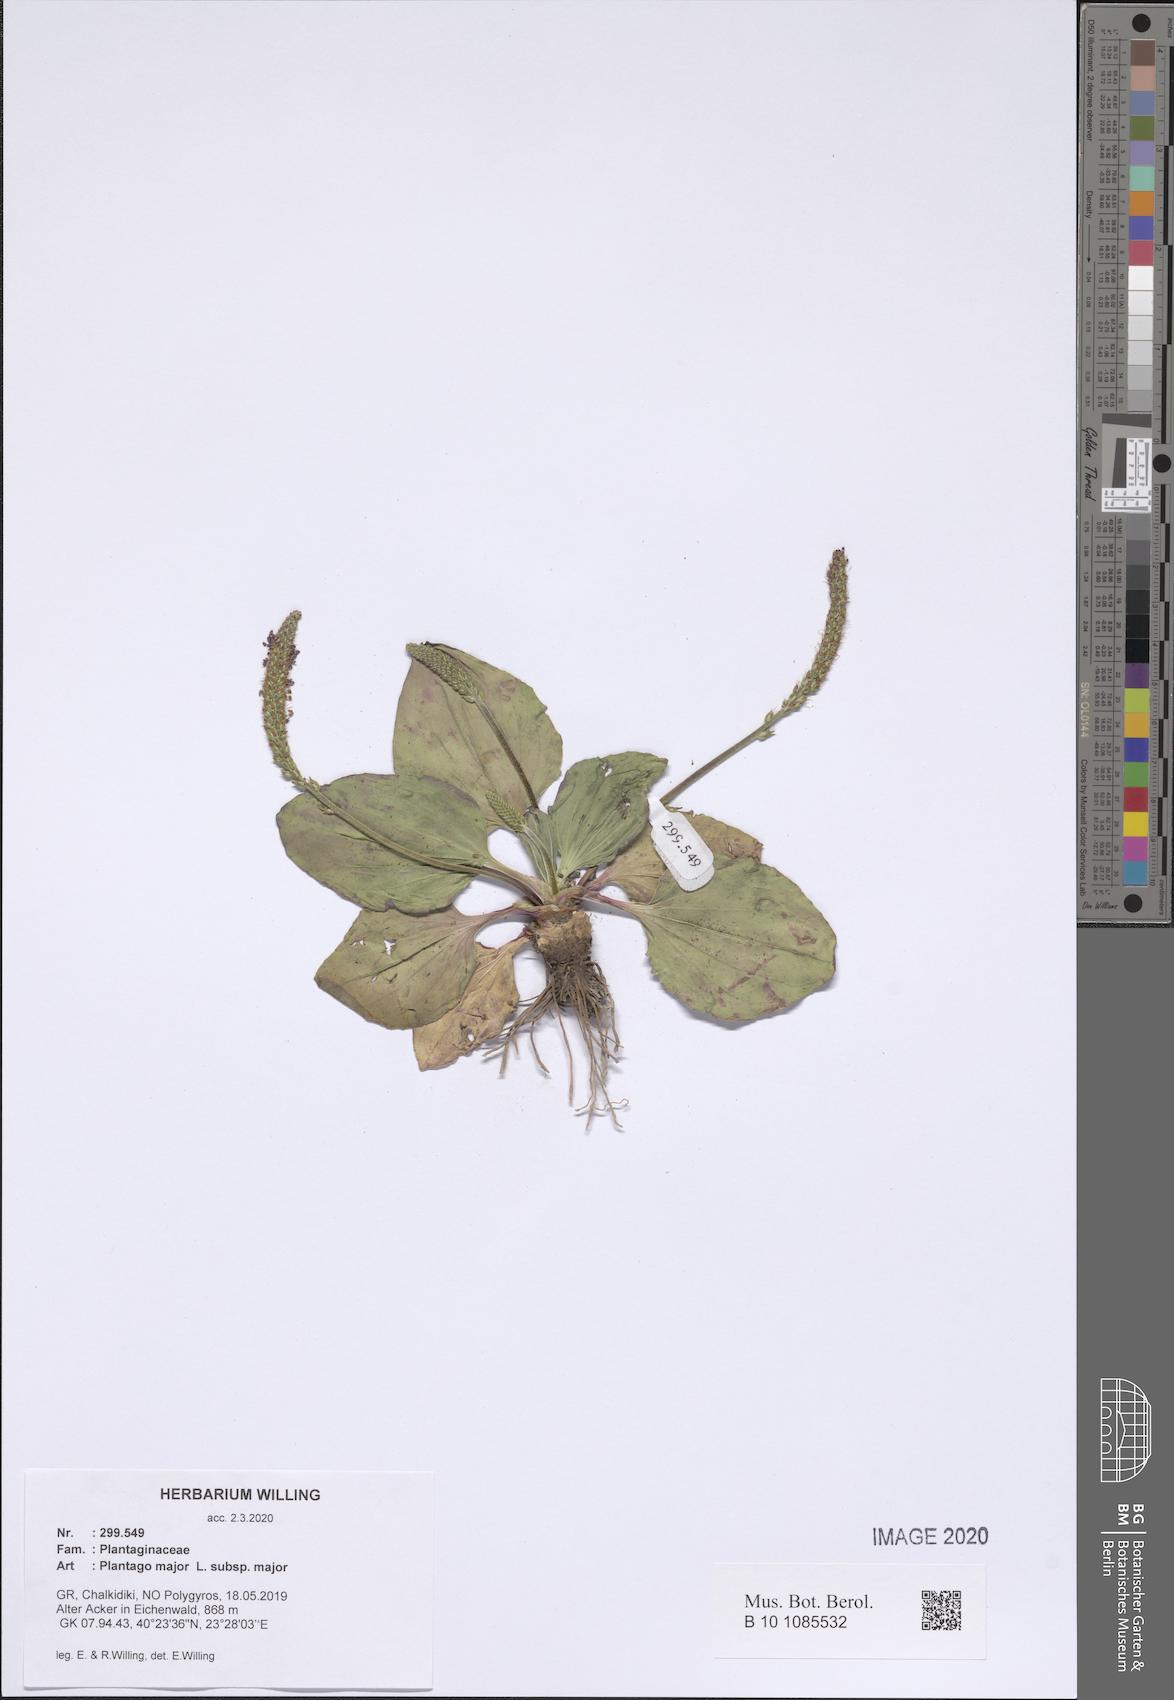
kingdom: Plantae
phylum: Tracheophyta
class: Magnoliopsida
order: Lamiales
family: Plantaginaceae
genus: Plantago
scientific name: Plantago major
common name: Common plantain
